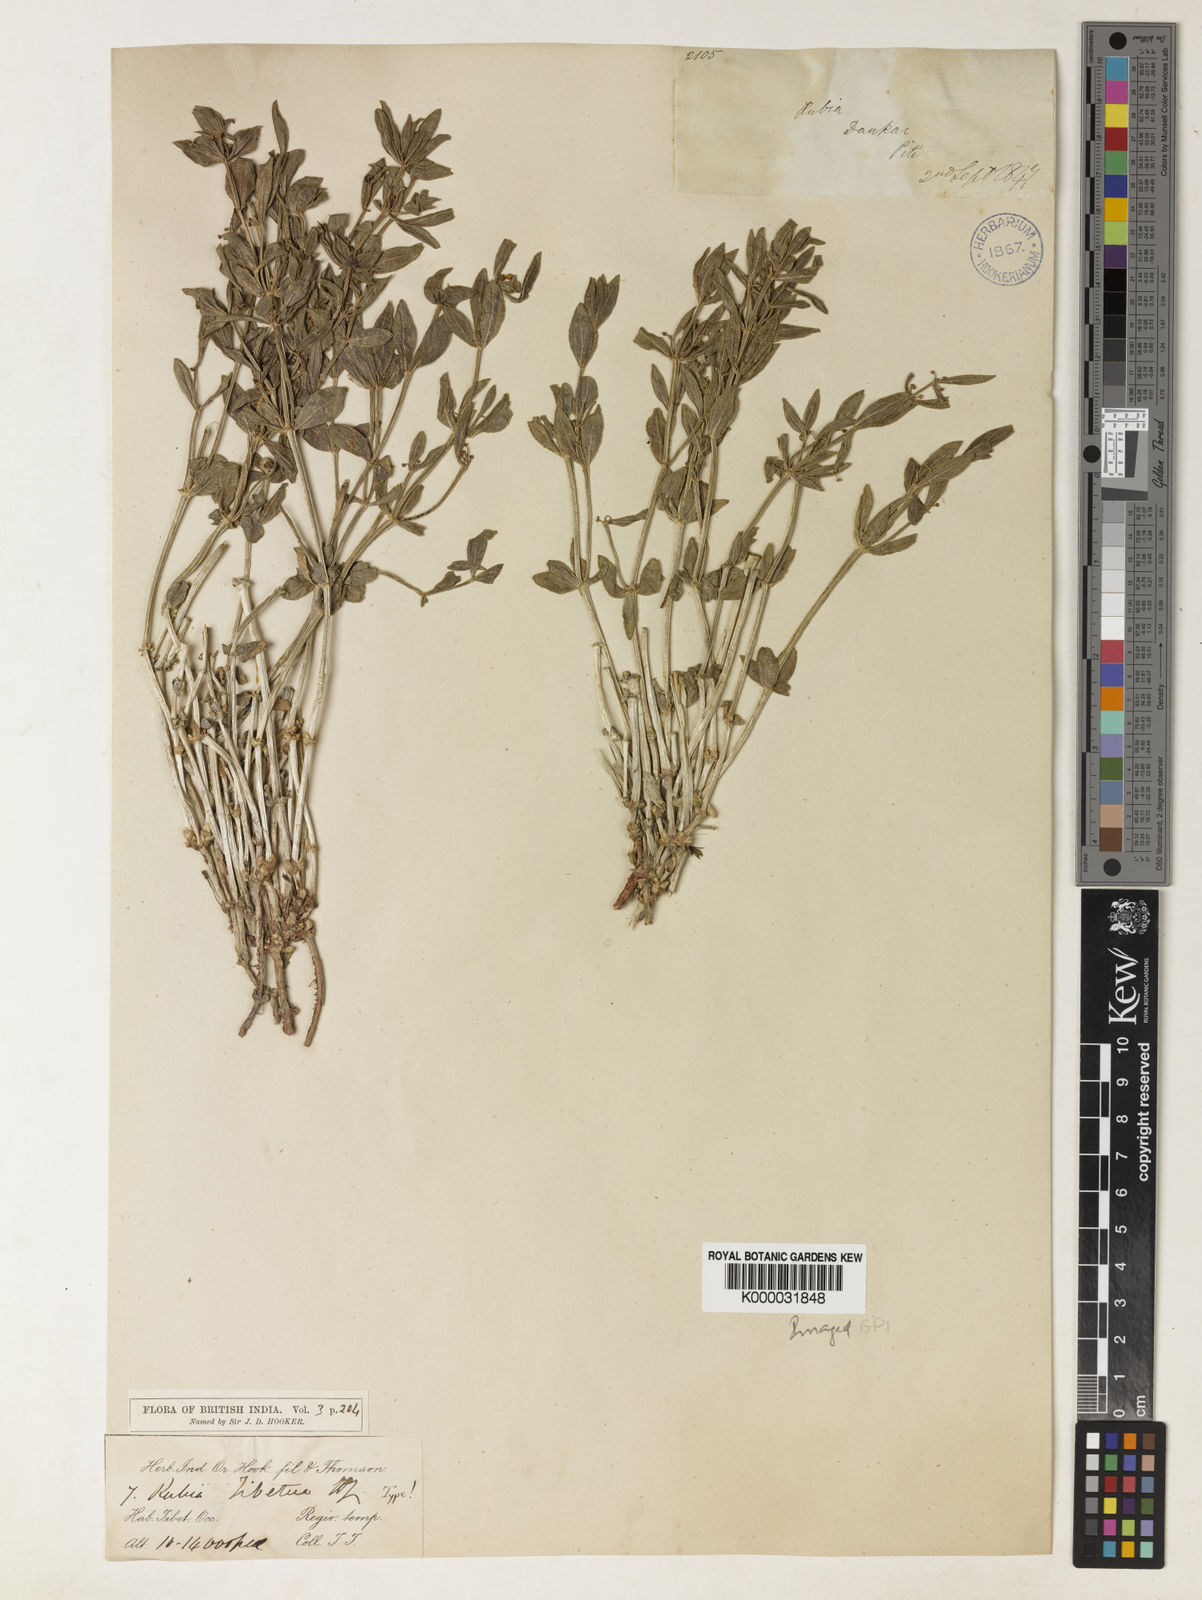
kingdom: Plantae
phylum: Tracheophyta
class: Magnoliopsida
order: Gentianales
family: Rubiaceae
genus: Rubia
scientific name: Rubia tibetica
